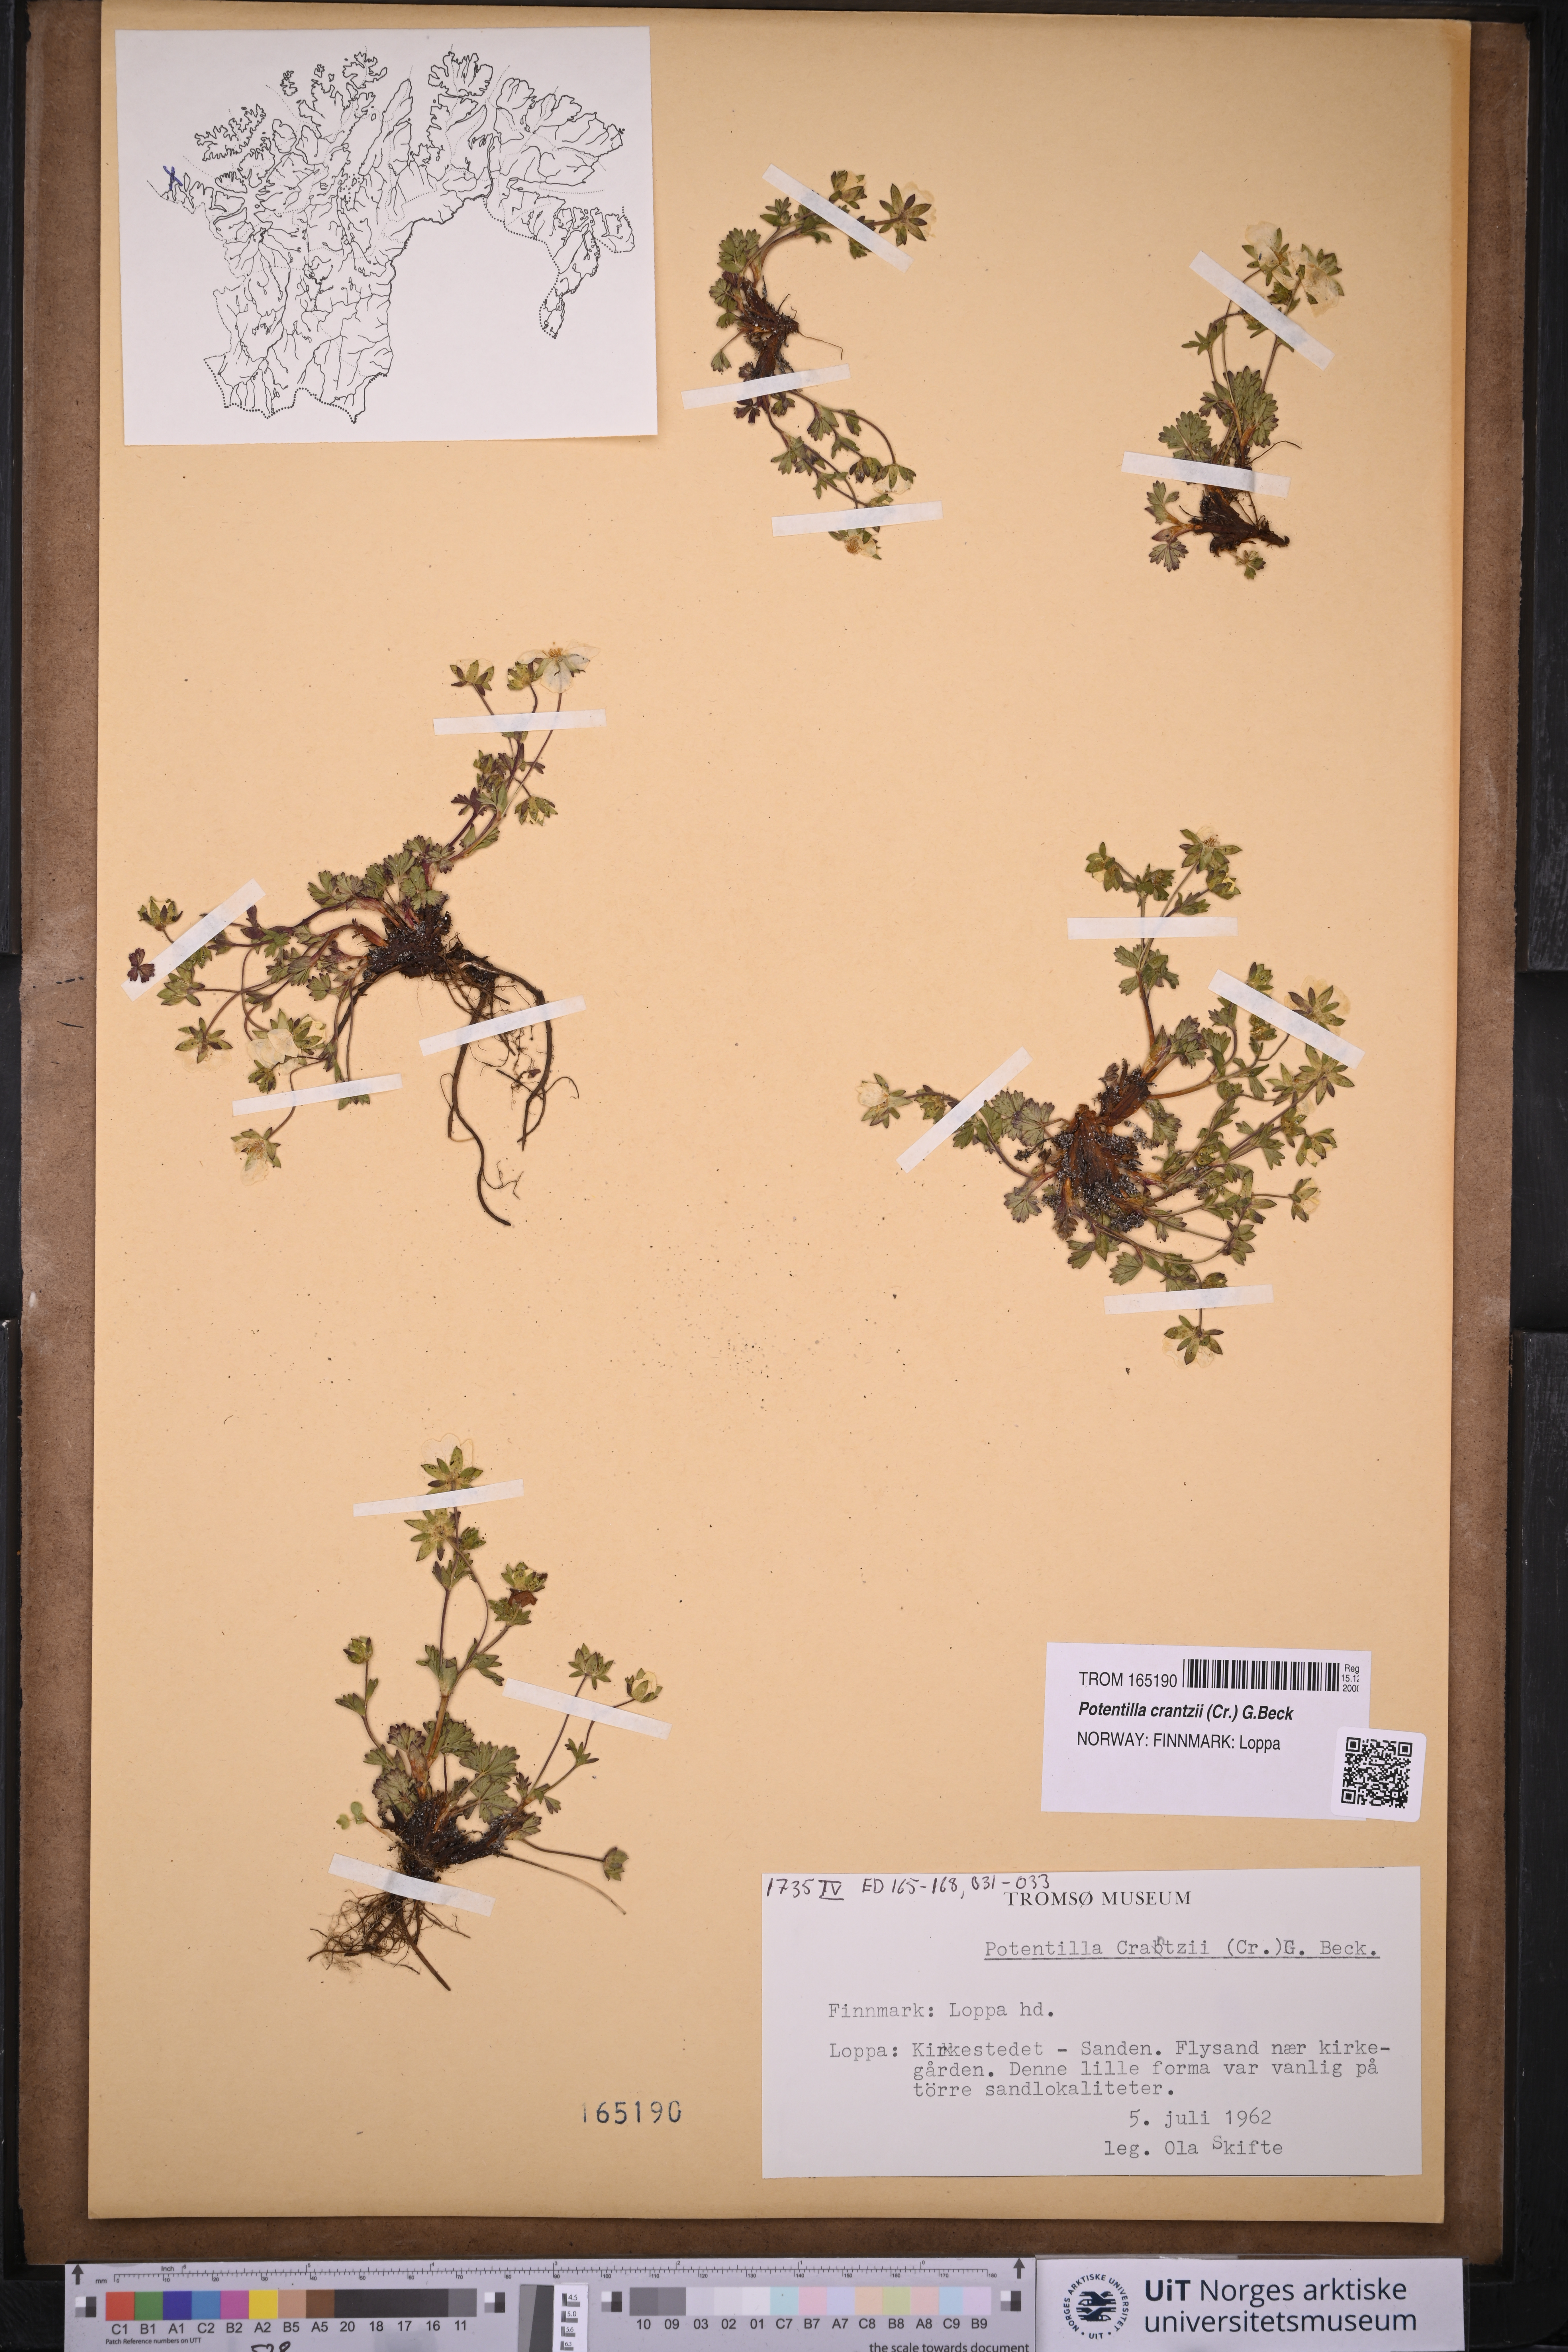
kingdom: Plantae
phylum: Tracheophyta
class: Magnoliopsida
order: Rosales
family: Rosaceae
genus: Potentilla
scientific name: Potentilla crantzii
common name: Alpine cinquefoil
